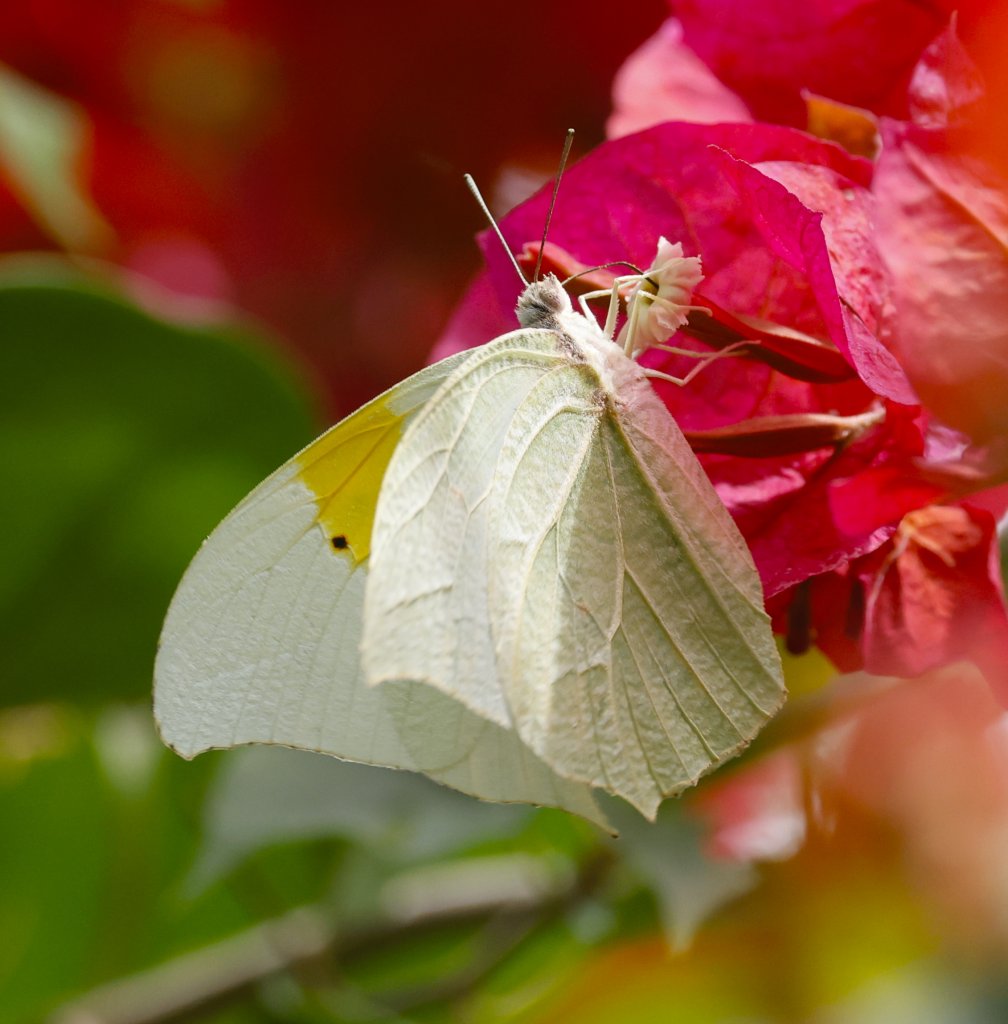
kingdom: Animalia
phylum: Arthropoda
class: Insecta
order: Lepidoptera
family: Pieridae
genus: Anteos
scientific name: Anteos clorinde
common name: White Angled-Sulphur
